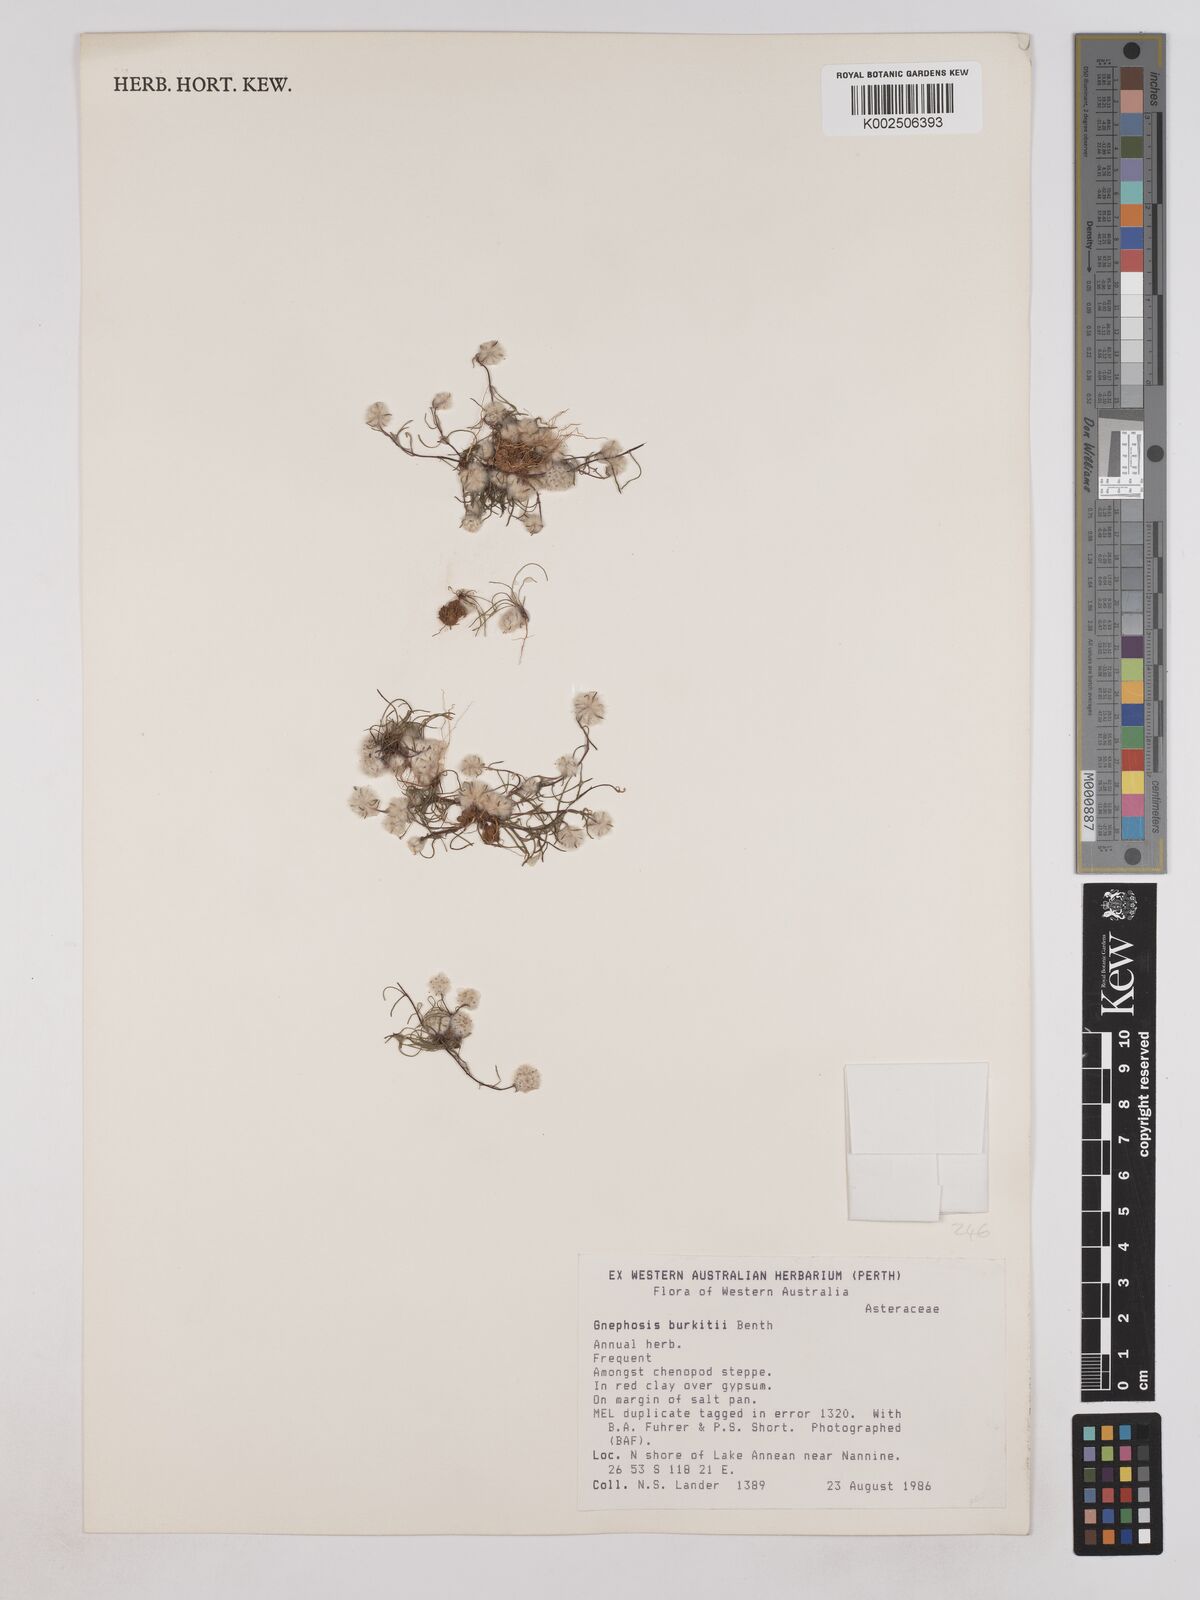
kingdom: Plantae
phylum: Tracheophyta
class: Magnoliopsida
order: Asterales
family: Asteraceae
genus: Lemooria
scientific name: Lemooria burkittii
